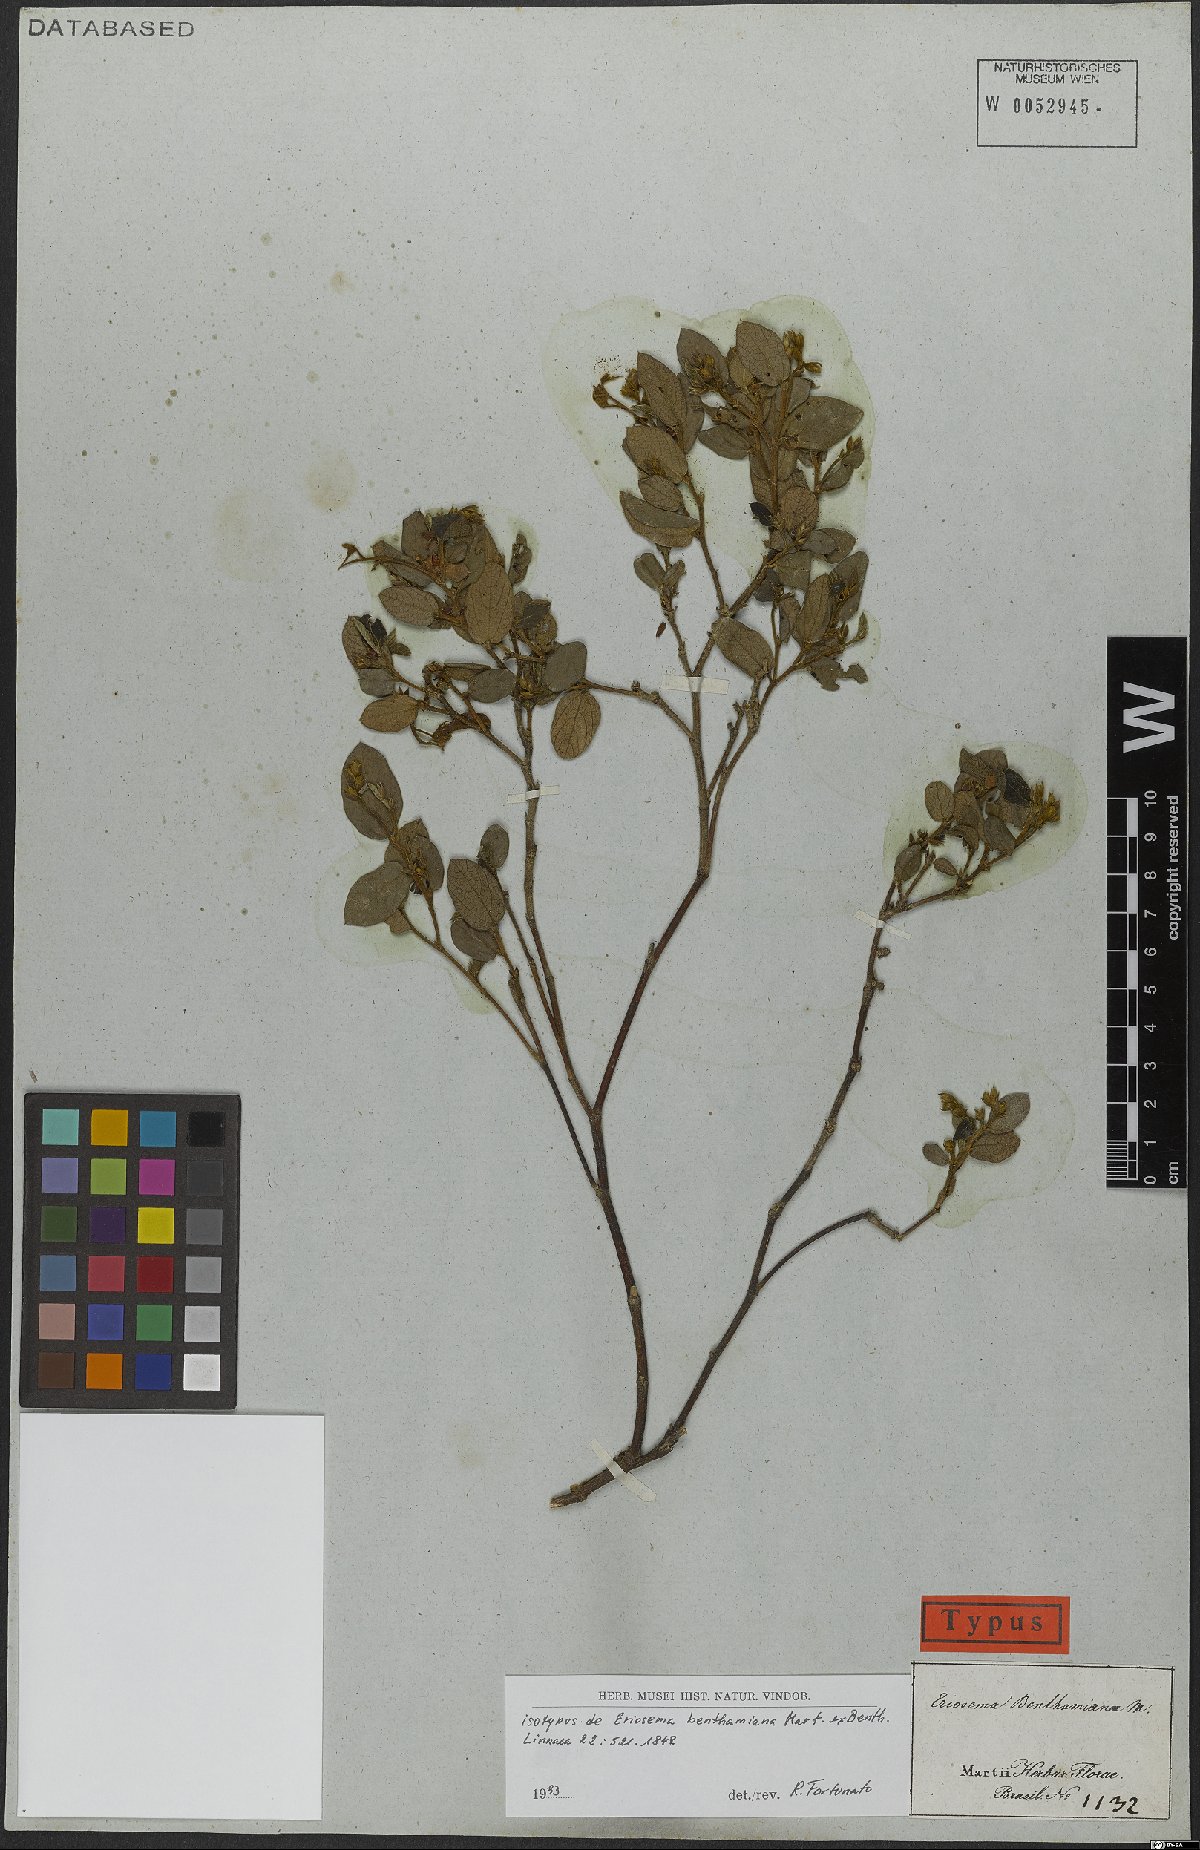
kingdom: Plantae
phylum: Tracheophyta
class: Magnoliopsida
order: Fabales
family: Fabaceae
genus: Eriosema
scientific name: Eriosema benthamianum
